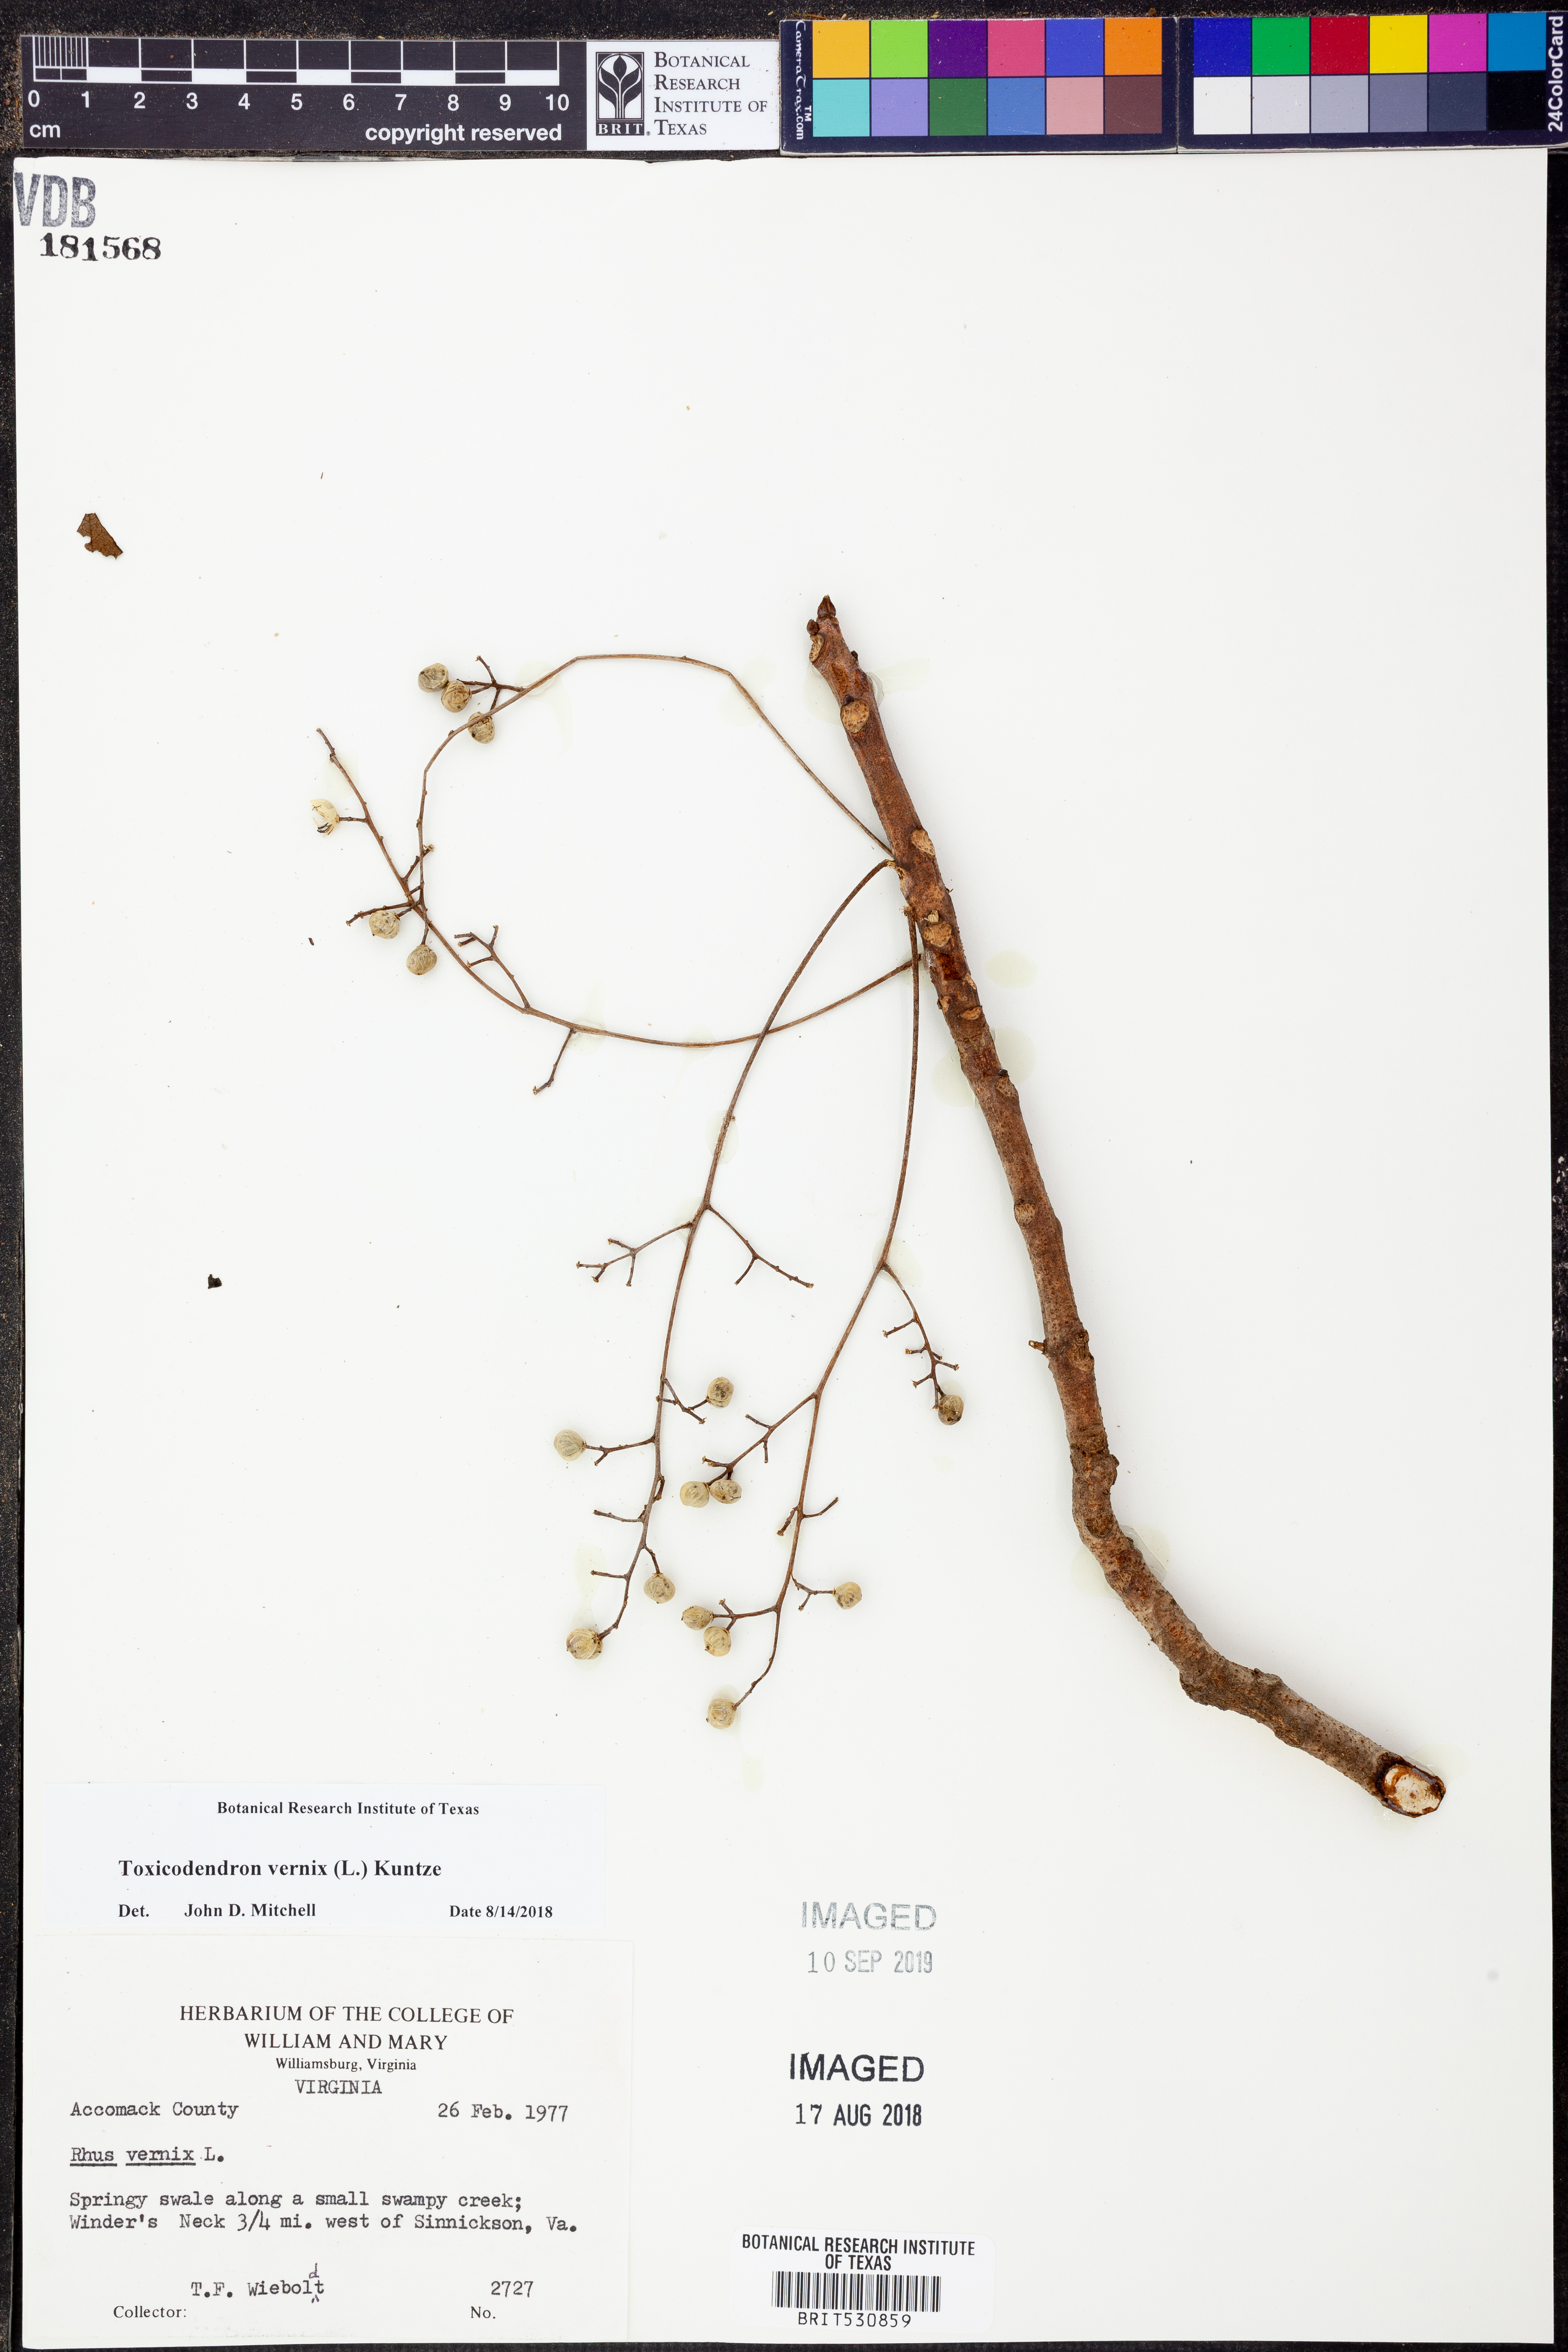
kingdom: Plantae
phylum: Tracheophyta
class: Magnoliopsida
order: Sapindales
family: Anacardiaceae
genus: Toxicodendron
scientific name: Toxicodendron vernix
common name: Poison sumac
